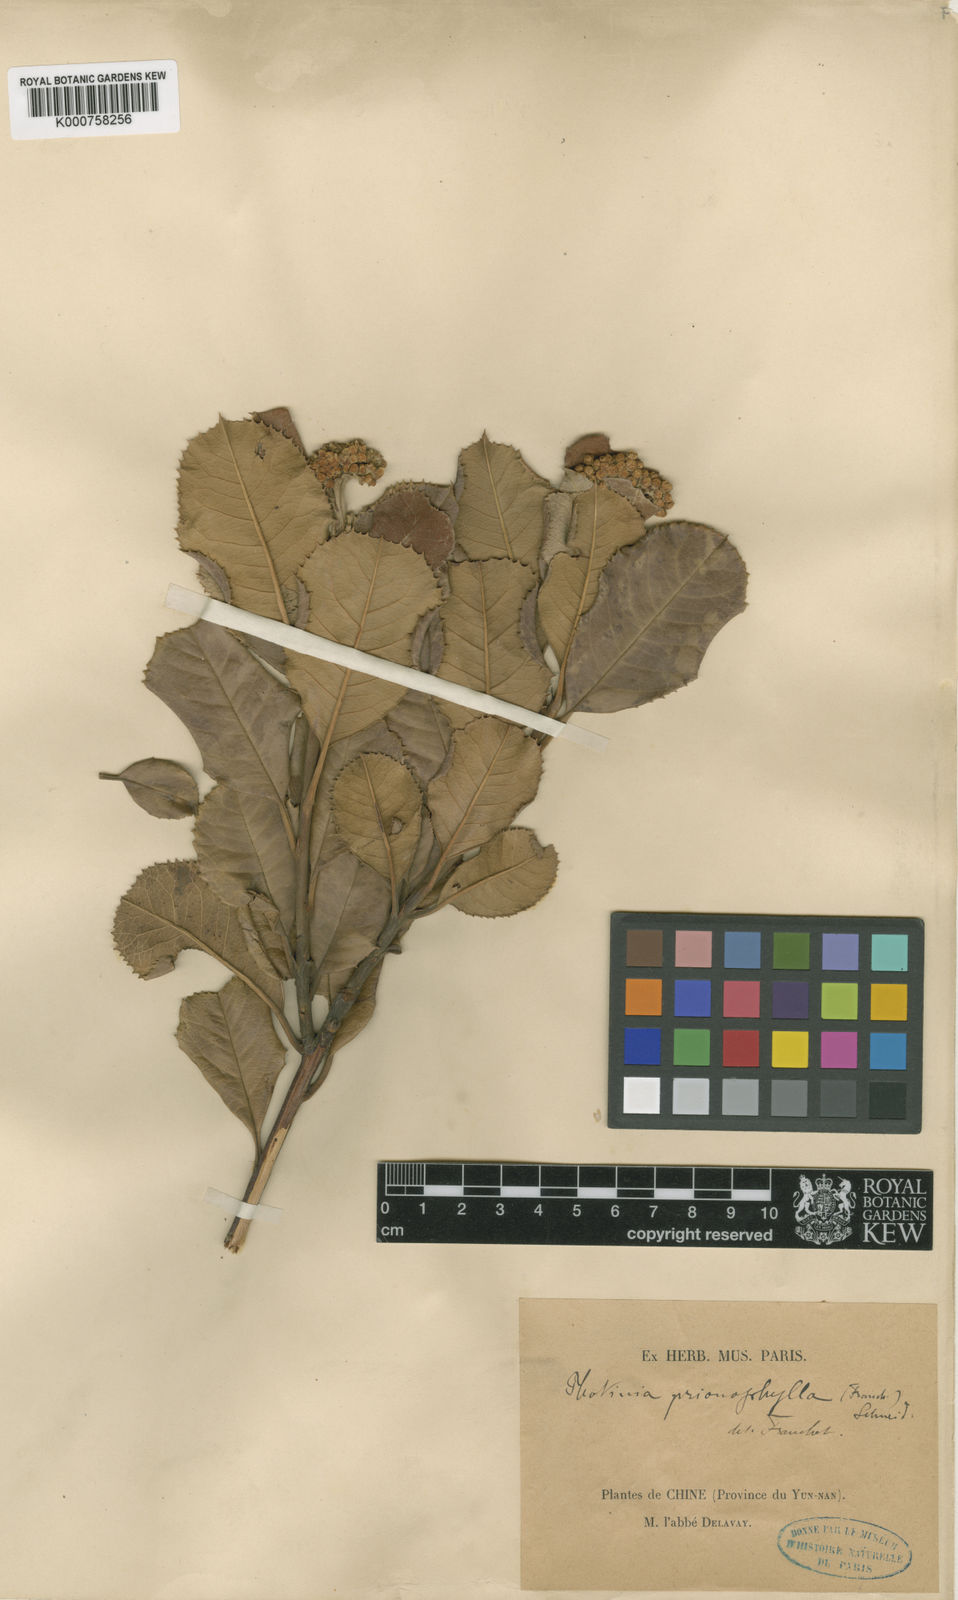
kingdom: Plantae
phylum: Tracheophyta
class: Magnoliopsida
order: Rosales
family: Rosaceae
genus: Photinia
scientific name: Photinia prionophylla
